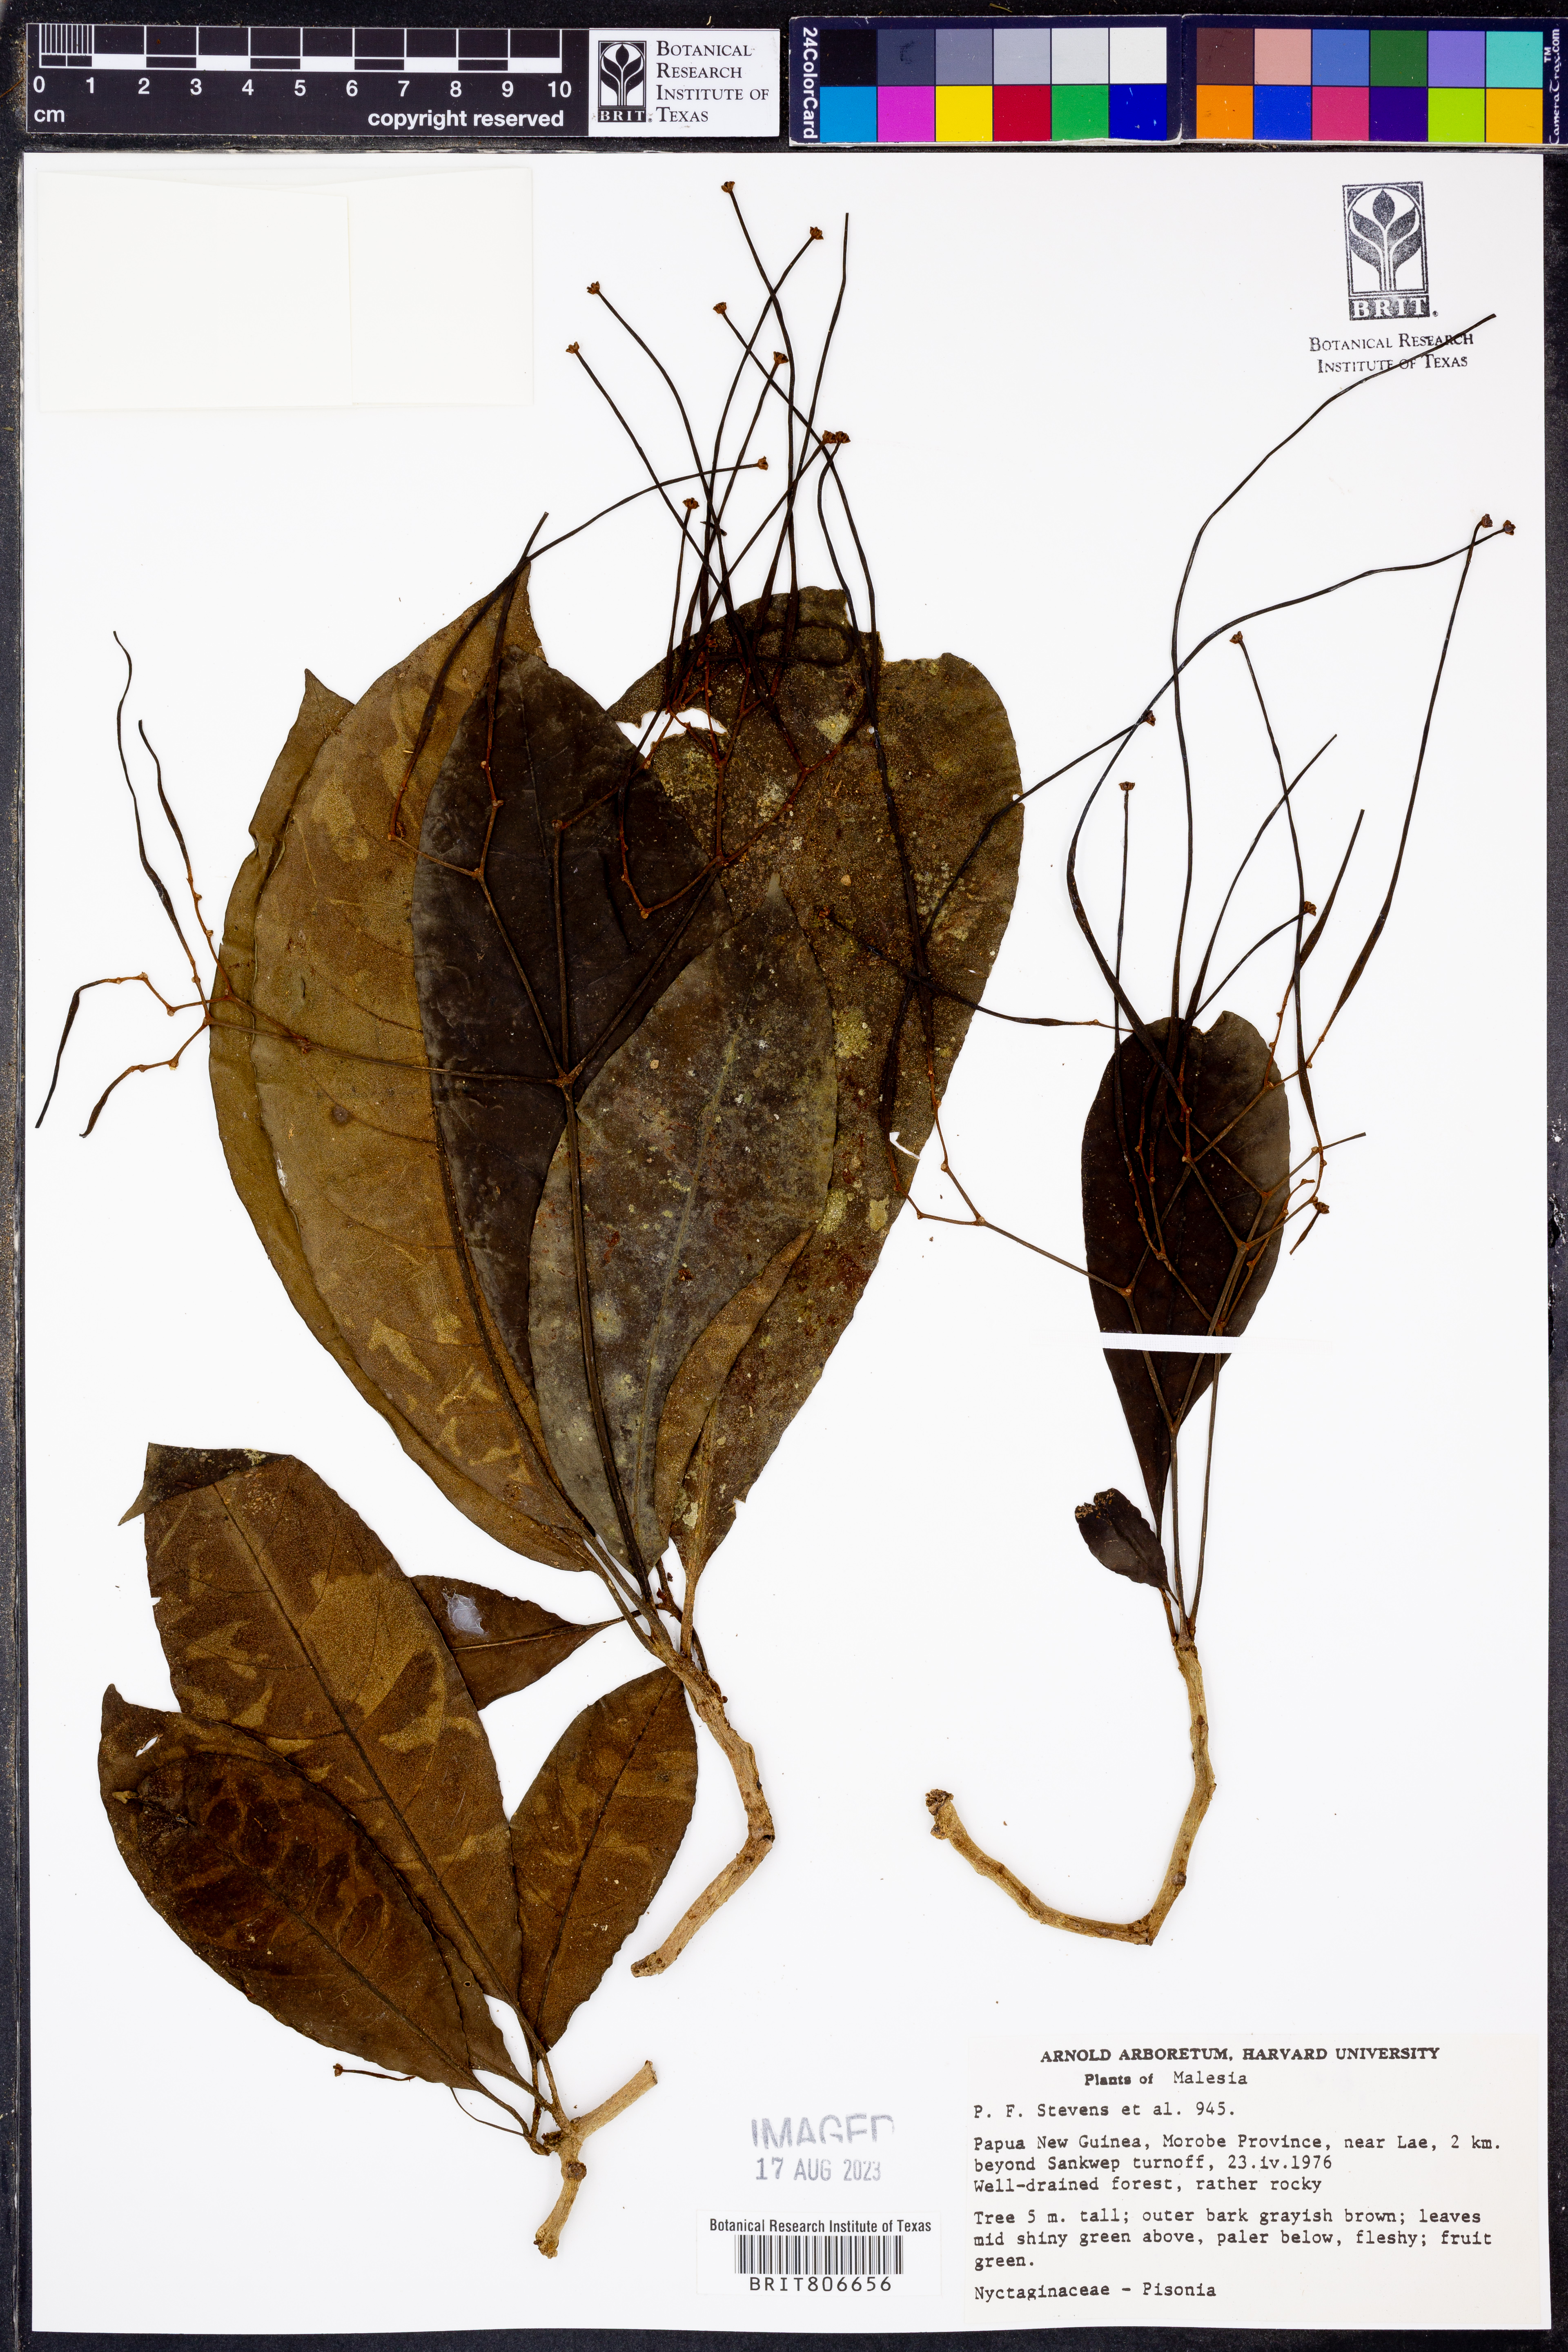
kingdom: Plantae
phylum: Tracheophyta
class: Magnoliopsida
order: Caryophyllales
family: Nyctaginaceae
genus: Pisonia
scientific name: Pisonia
